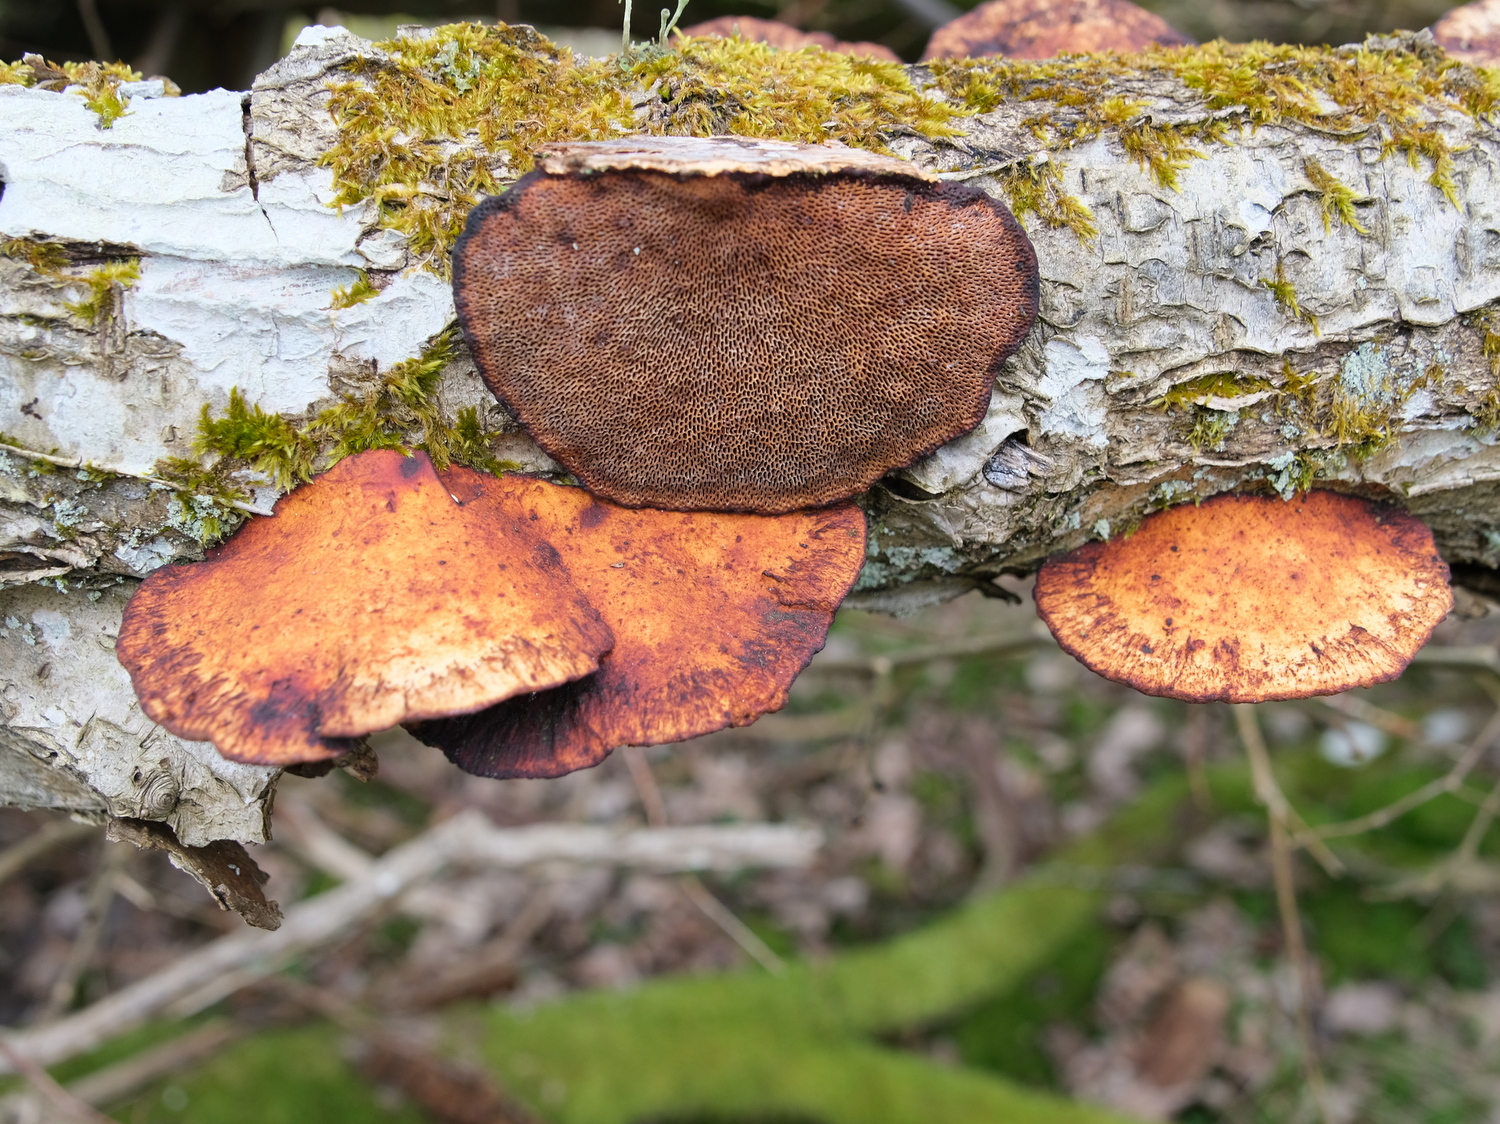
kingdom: Fungi
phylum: Basidiomycota
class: Agaricomycetes
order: Polyporales
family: Polyporaceae
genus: Daedaleopsis
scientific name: Daedaleopsis confragosa
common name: rødmende læderporesvamp
